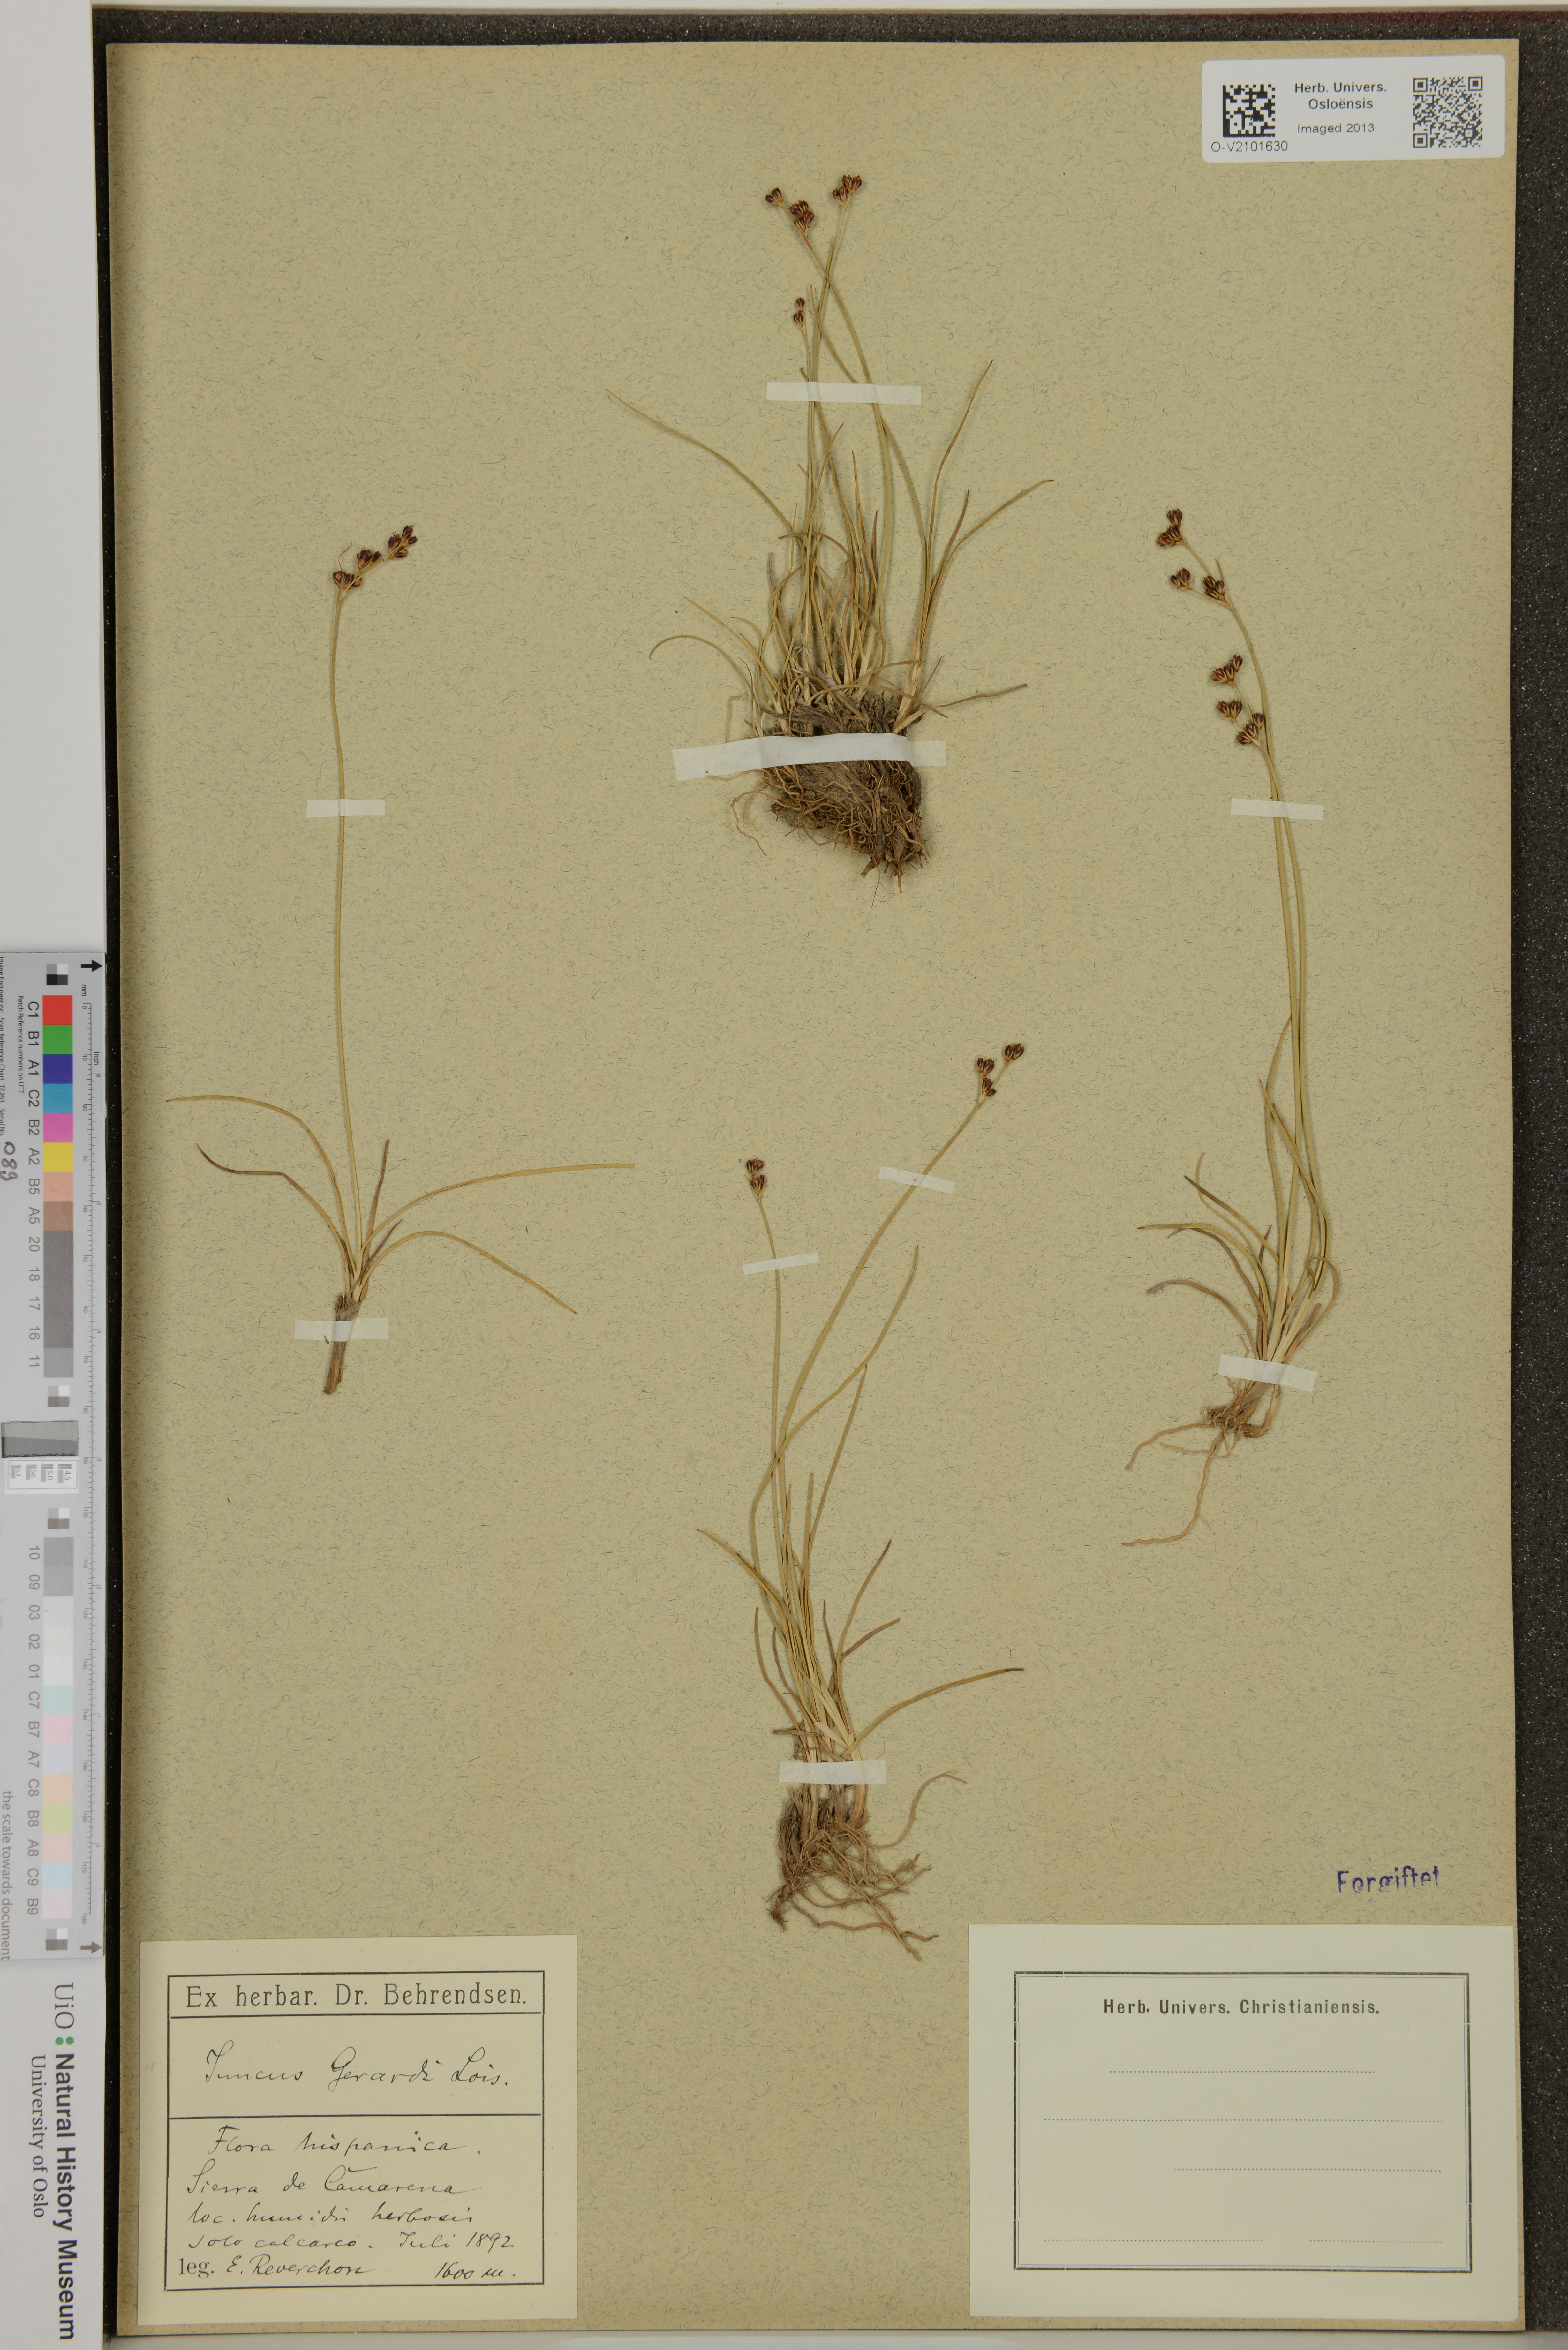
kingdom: Plantae
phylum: Tracheophyta
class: Liliopsida
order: Poales
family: Juncaceae
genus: Juncus
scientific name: Juncus gerardi
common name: Saltmarsh rush
